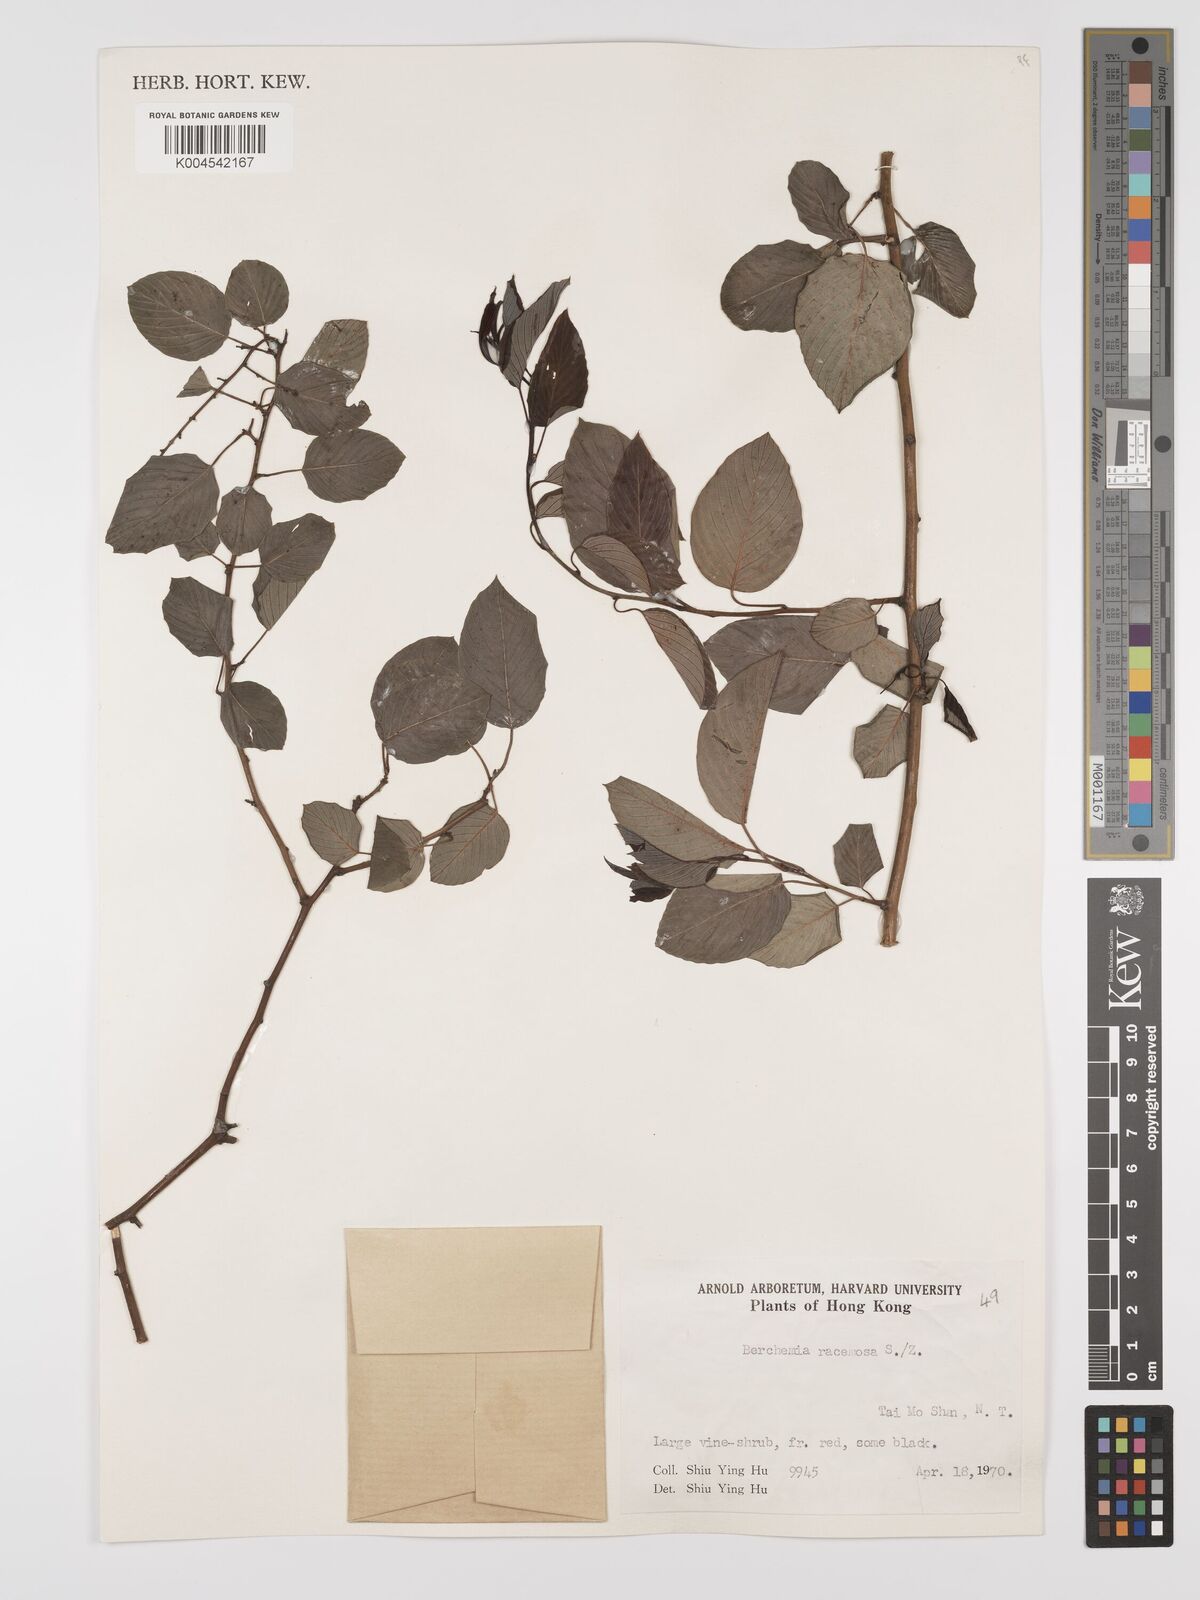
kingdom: Plantae
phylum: Tracheophyta
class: Magnoliopsida
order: Rosales
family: Rhamnaceae
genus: Berchemia
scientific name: Berchemia floribunda
